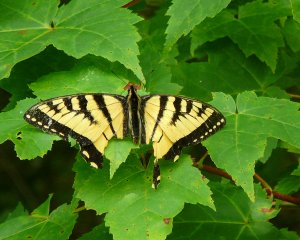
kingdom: Animalia
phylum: Arthropoda
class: Insecta
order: Lepidoptera
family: Papilionidae
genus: Pterourus
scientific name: Pterourus canadensis
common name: Canadian Tiger Swallowtail
